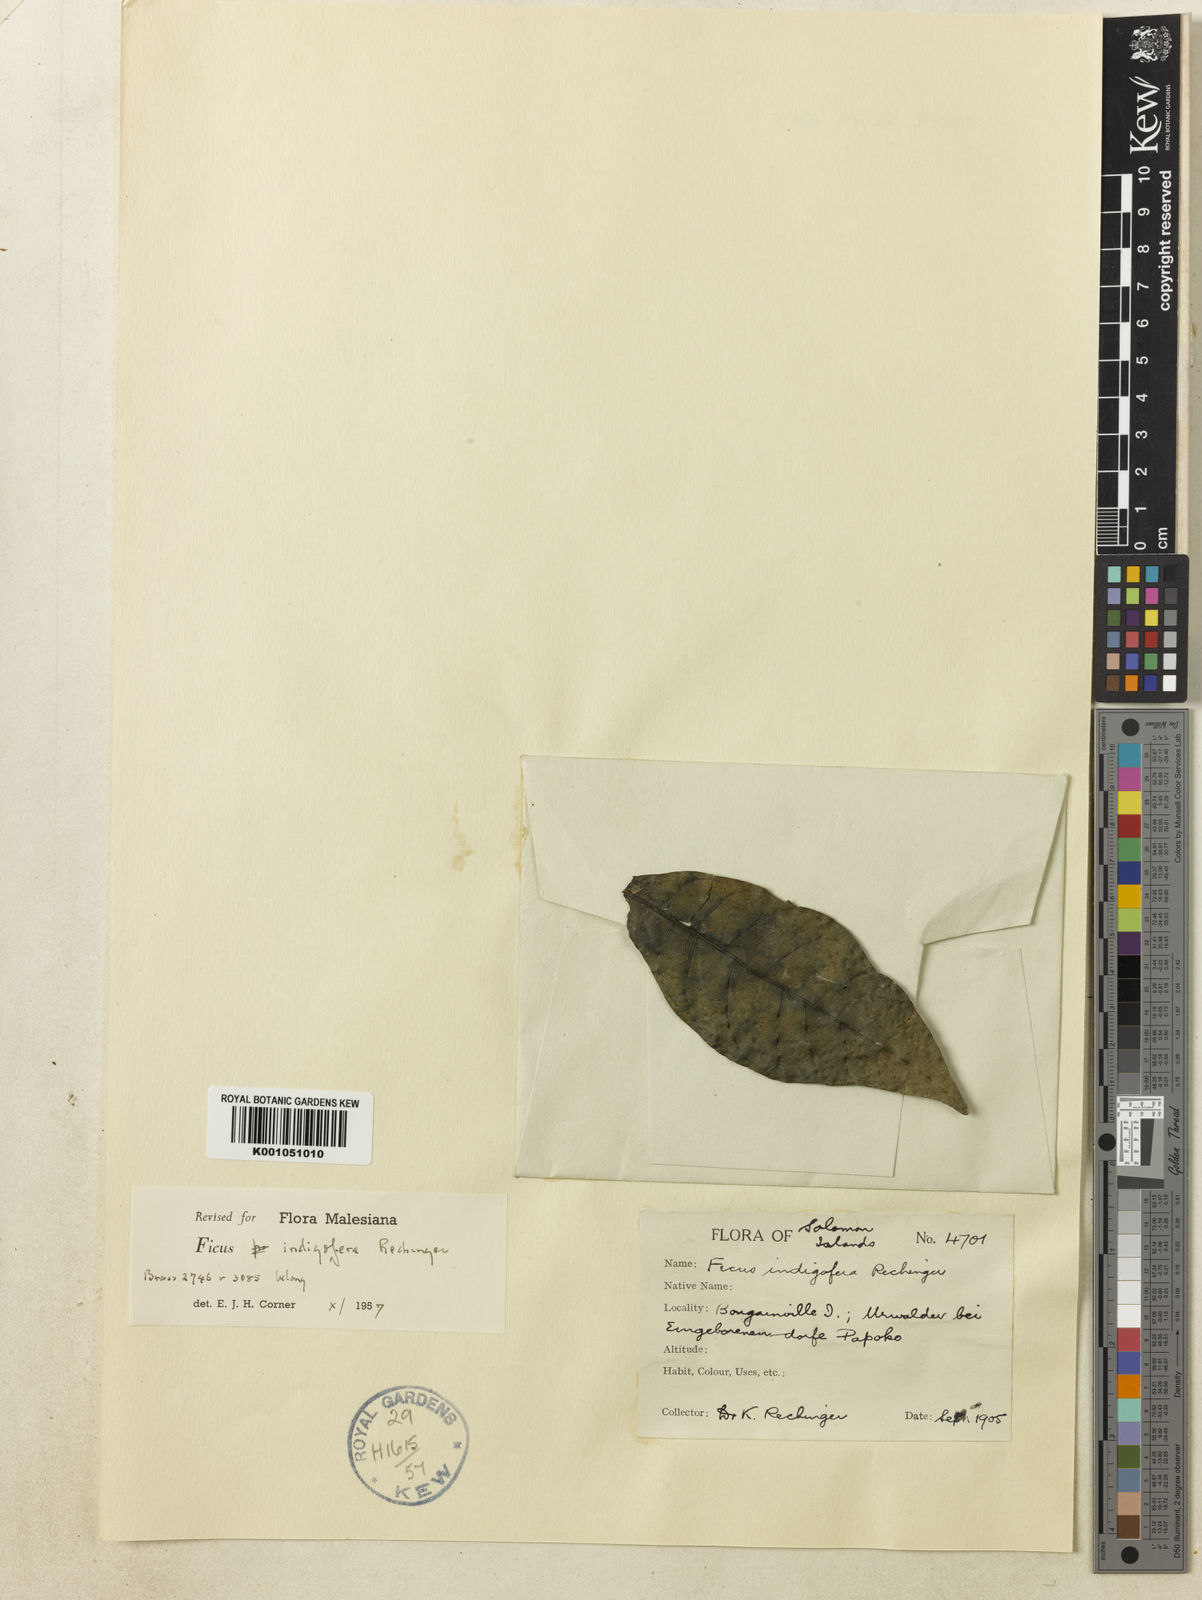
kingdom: Plantae
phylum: Tracheophyta
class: Magnoliopsida
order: Rosales
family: Moraceae
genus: Ficus
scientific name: Ficus indigofera
